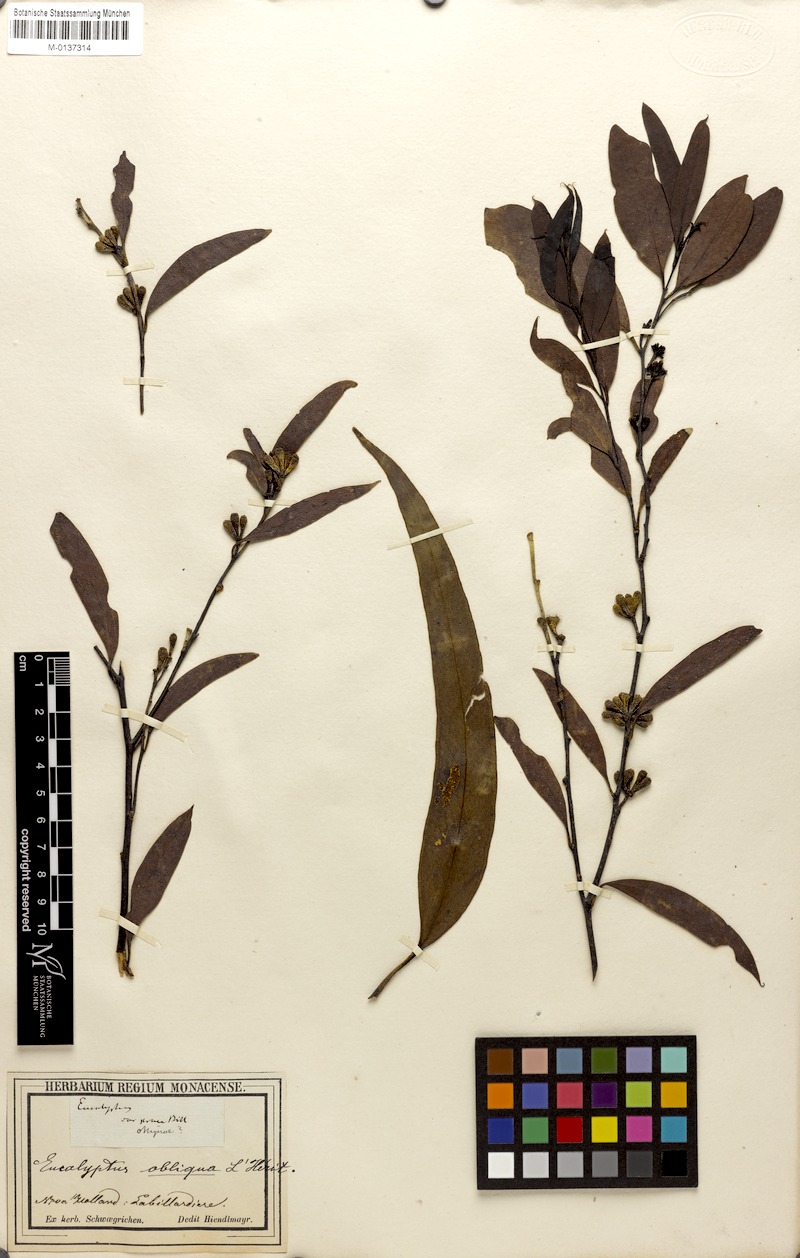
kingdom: Plantae
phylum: Tracheophyta
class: Magnoliopsida
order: Myrtales
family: Myrtaceae
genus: Eucalyptus
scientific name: Eucalyptus obliqua
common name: Messmate stringybark
